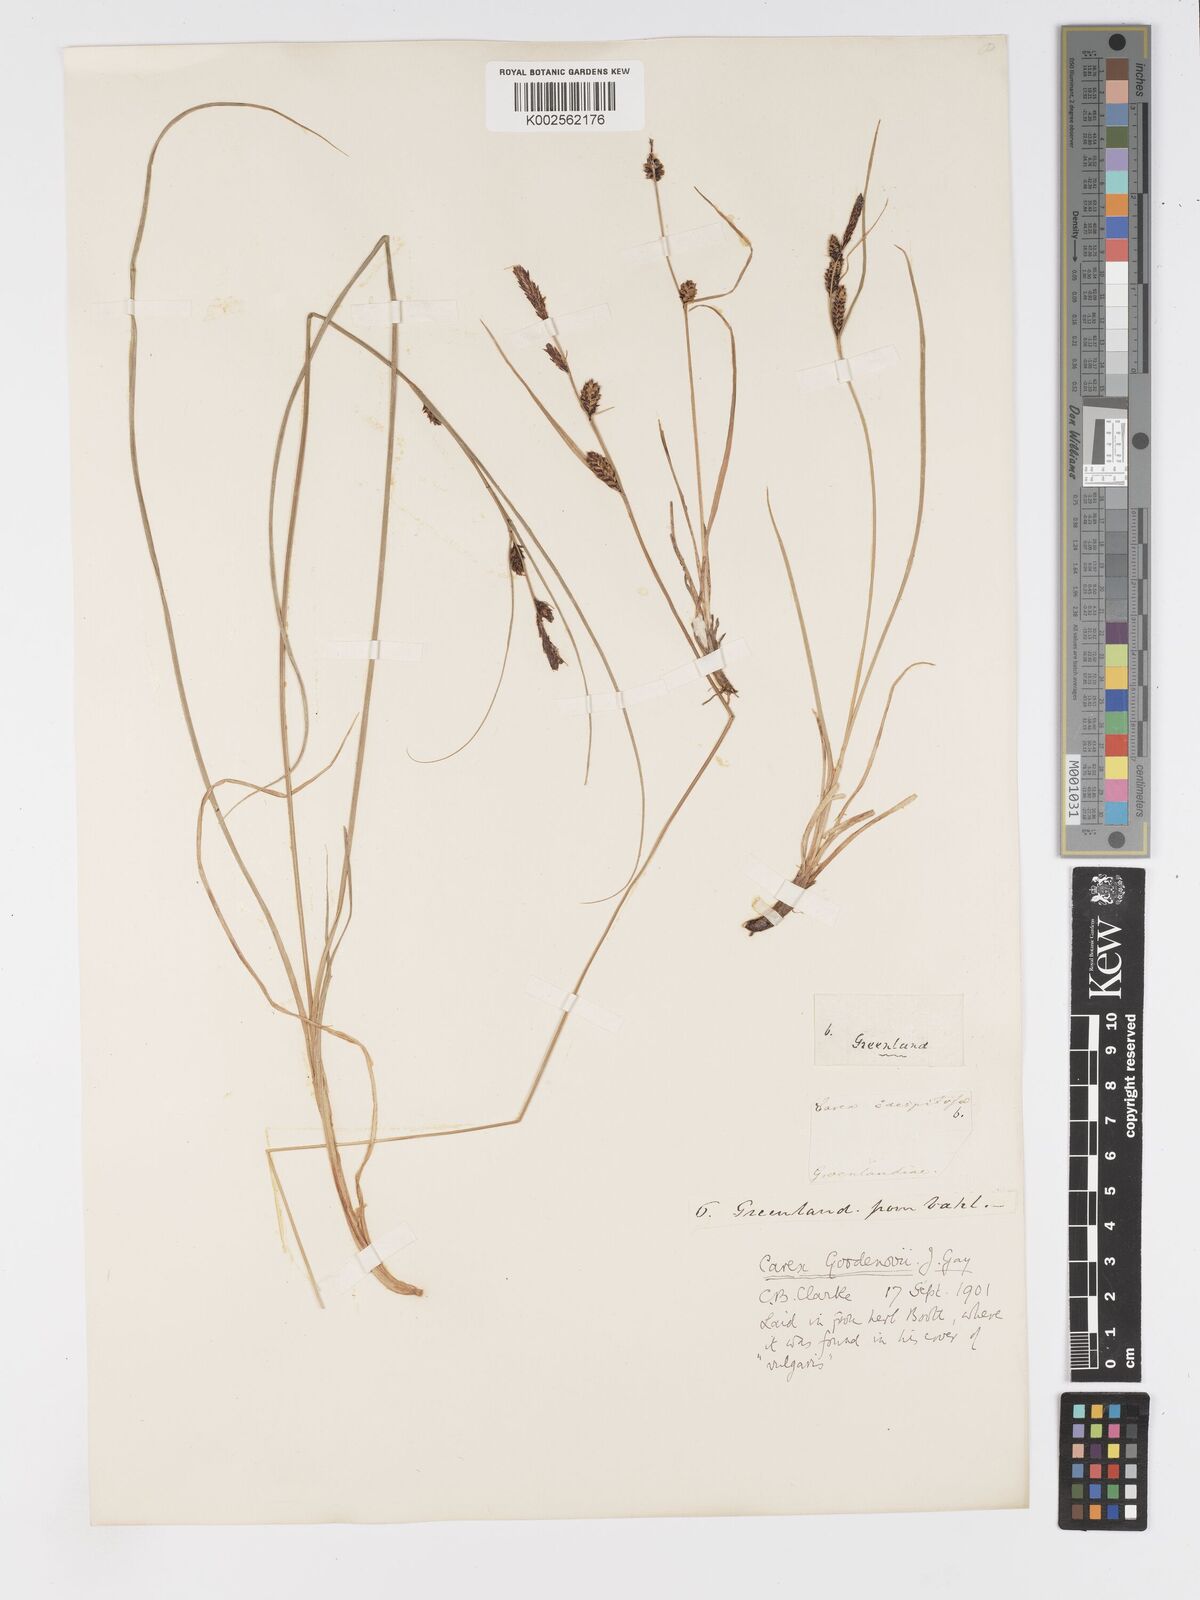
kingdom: Plantae
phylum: Tracheophyta
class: Liliopsida
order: Poales
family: Cyperaceae
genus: Carex
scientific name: Carex nigra
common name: Common sedge
